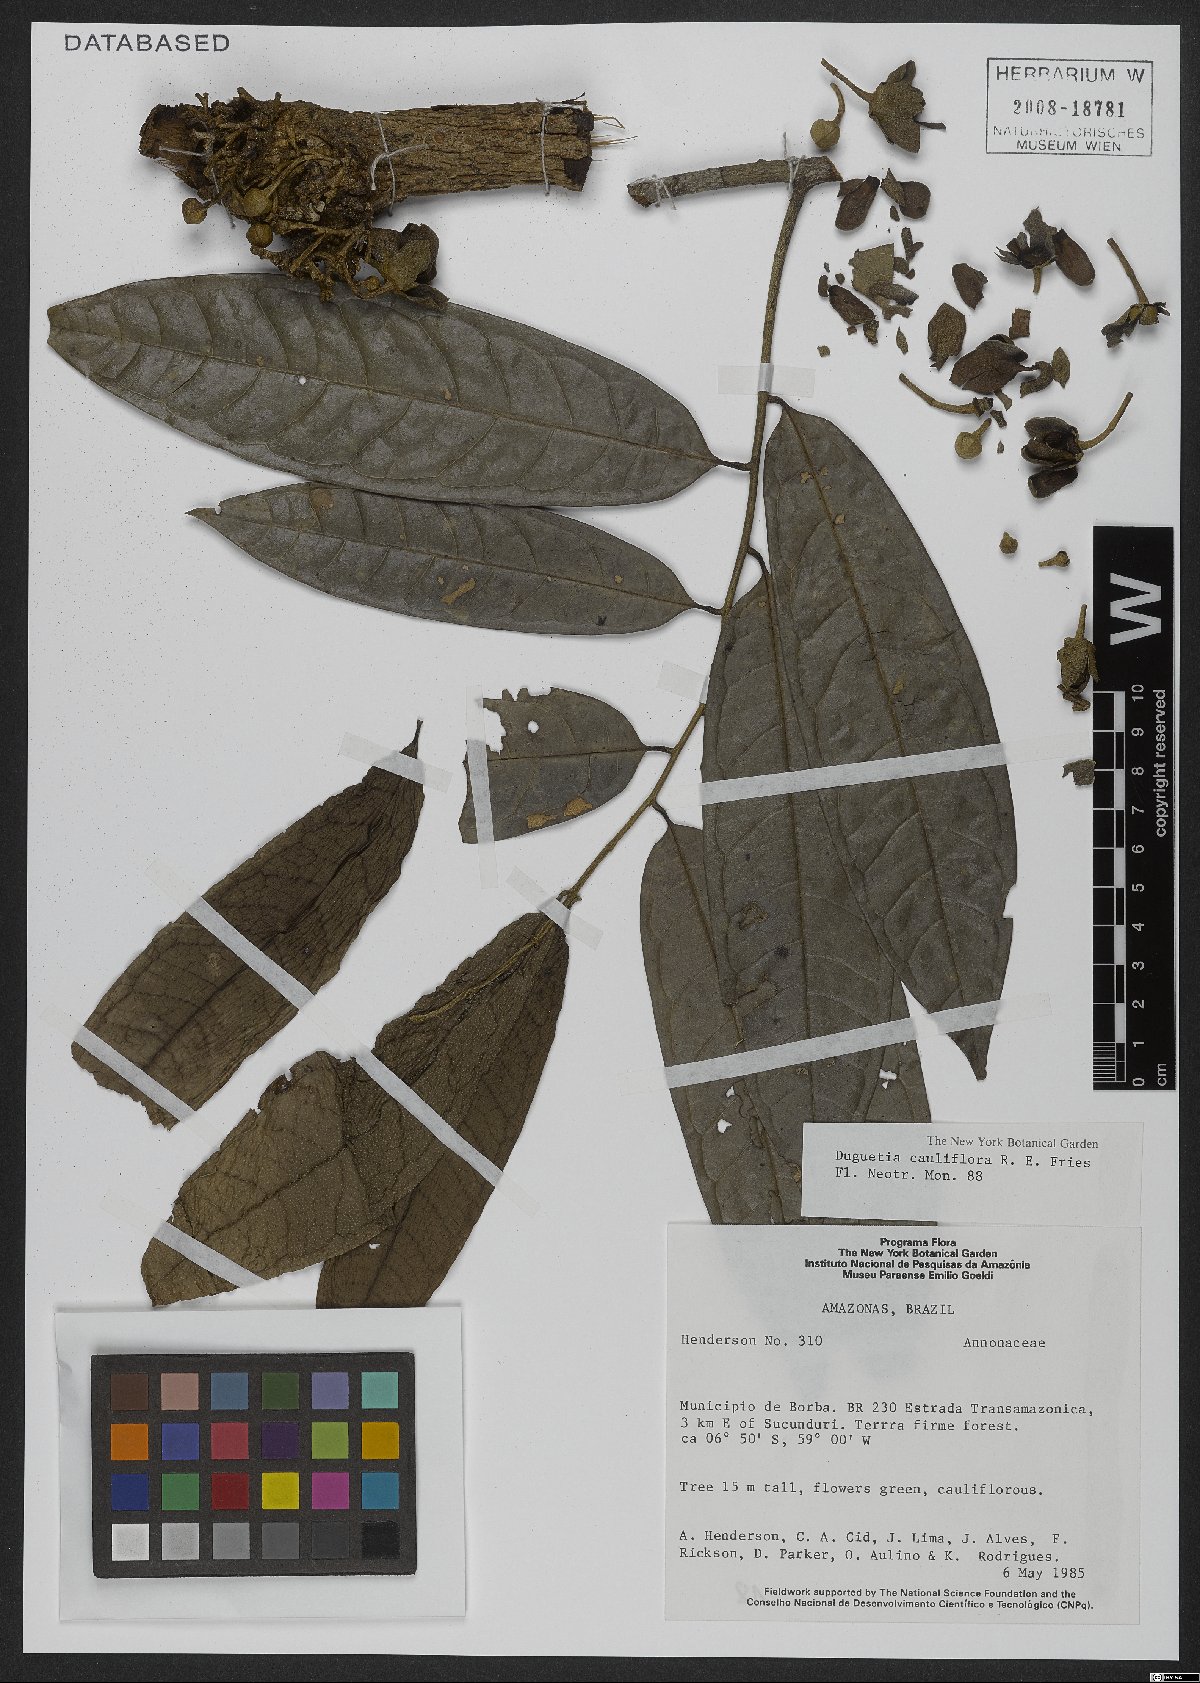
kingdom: Plantae
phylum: Tracheophyta
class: Magnoliopsida
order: Magnoliales
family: Annonaceae
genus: Duguetia
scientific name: Duguetia cauliflora
